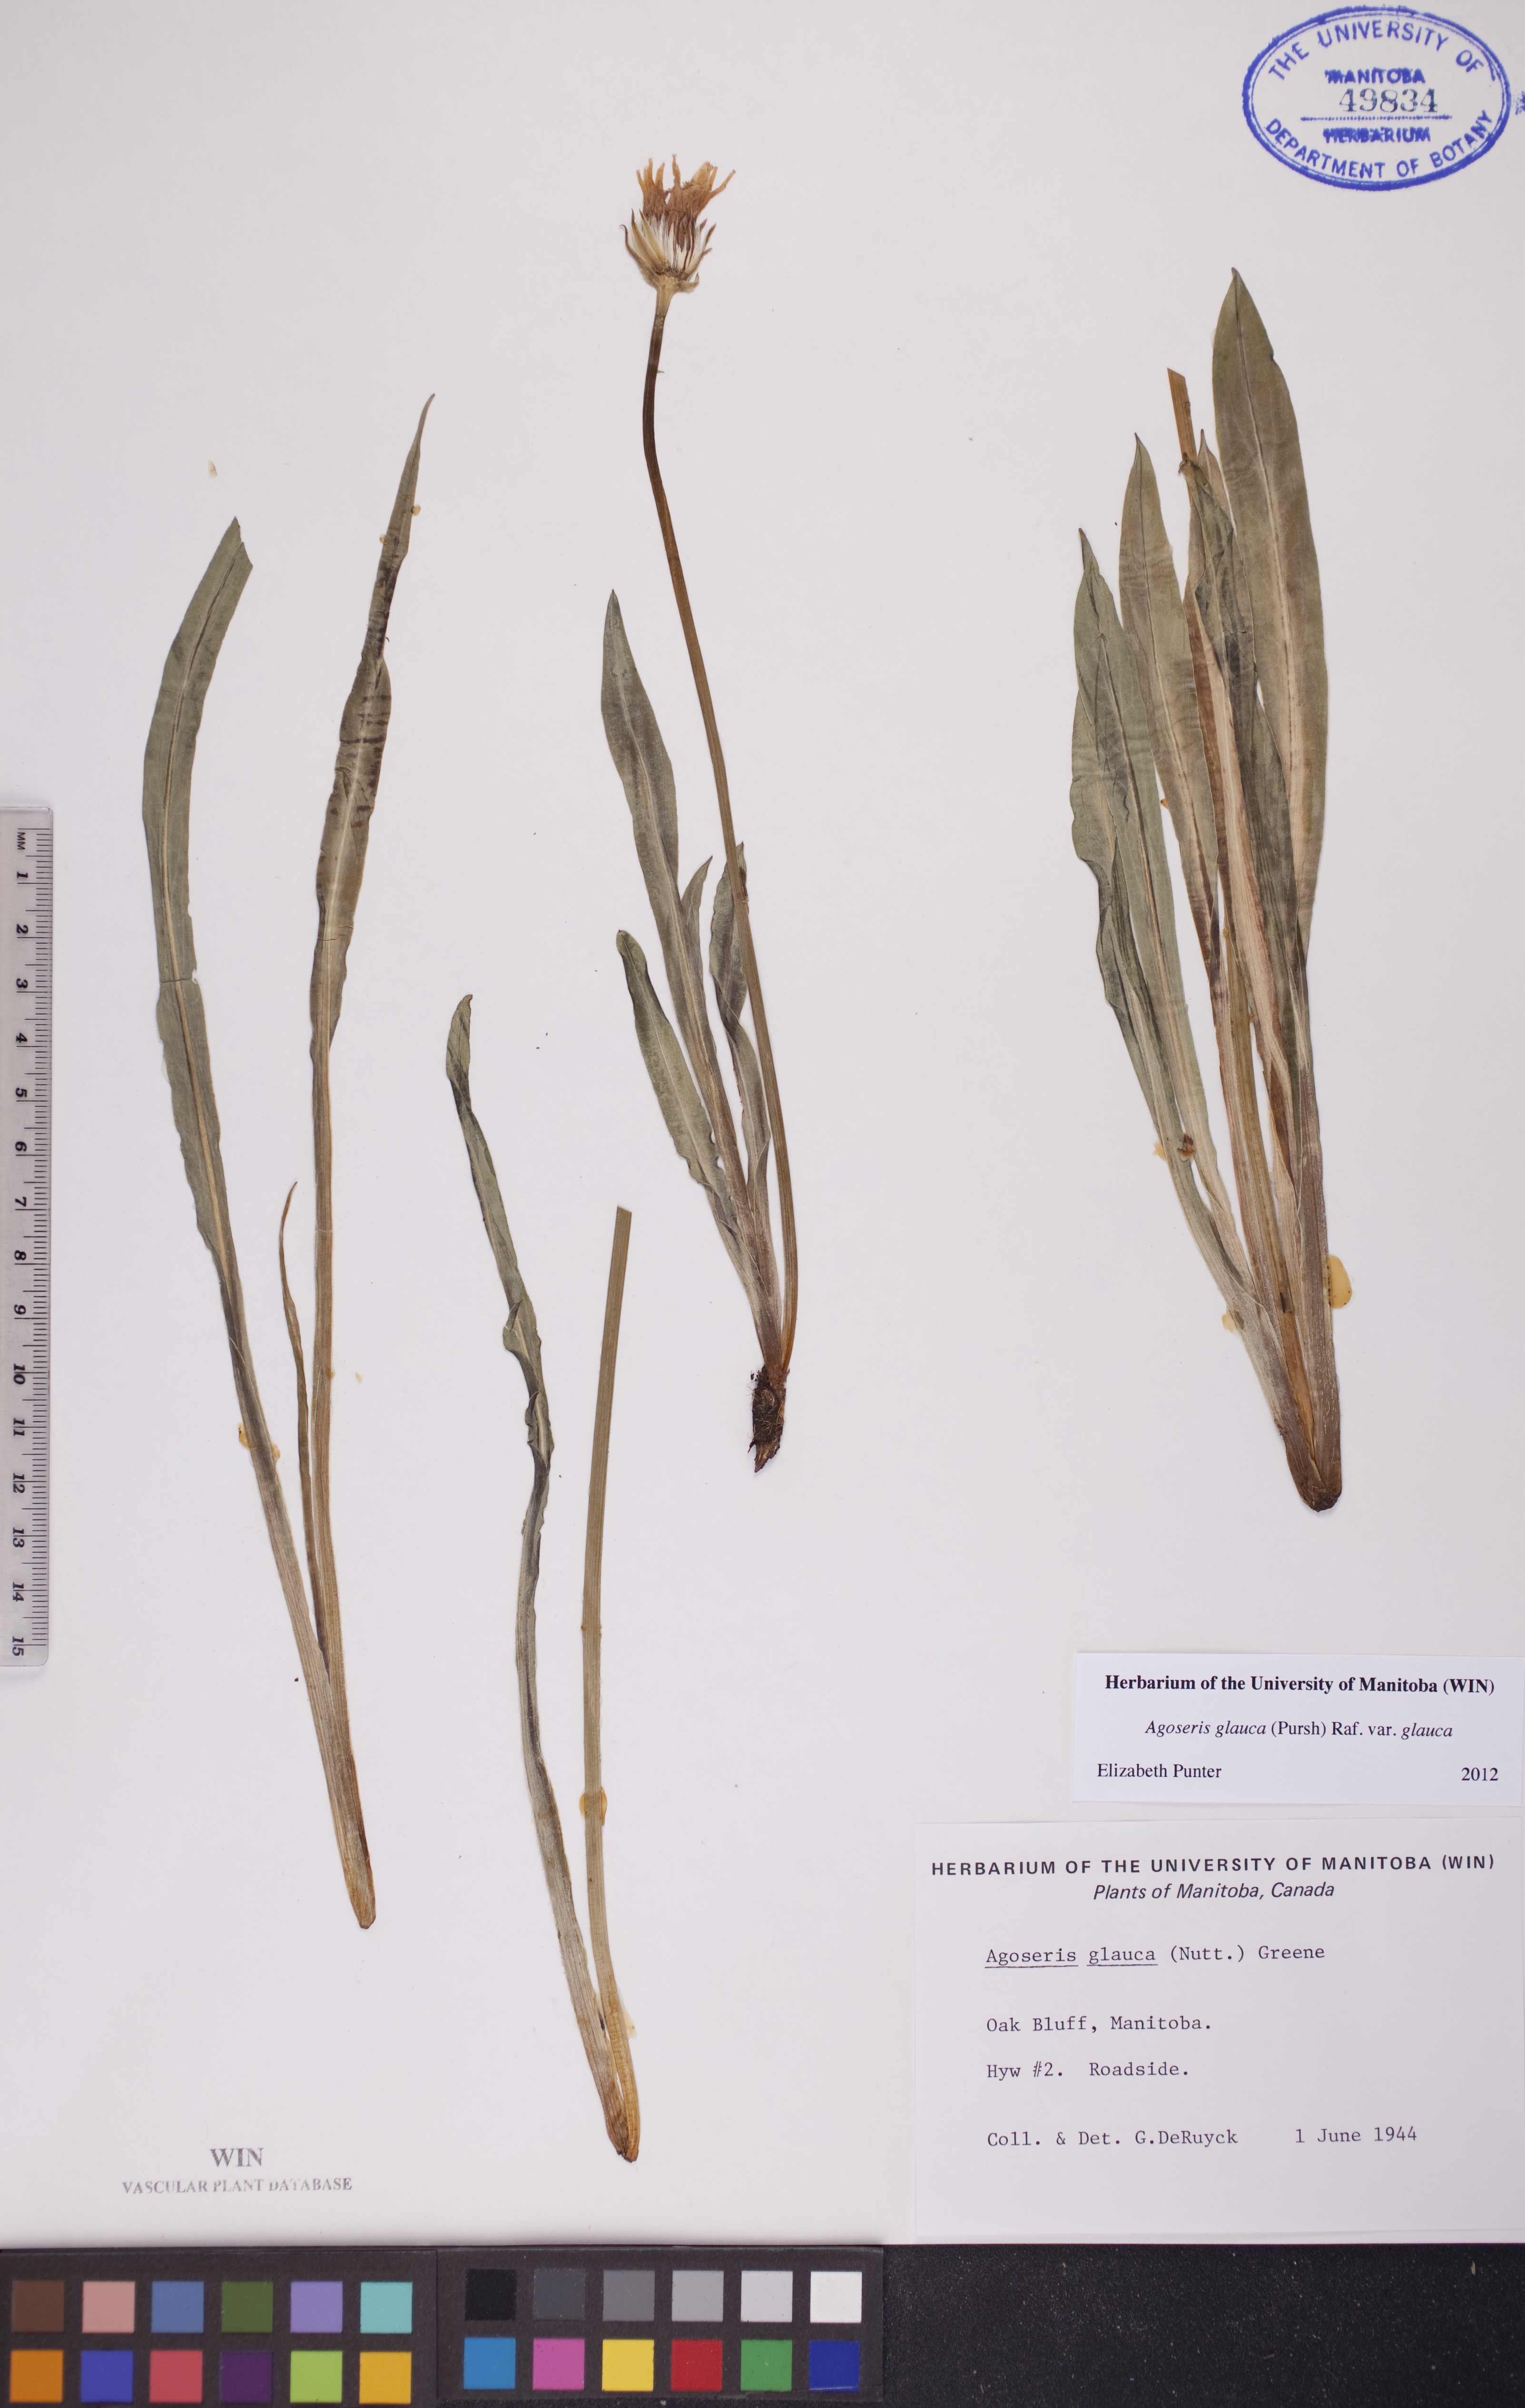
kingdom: Plantae
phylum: Tracheophyta
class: Magnoliopsida
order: Asterales
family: Asteraceae
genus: Agoseris
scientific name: Agoseris glauca
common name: Prairie agoseris
